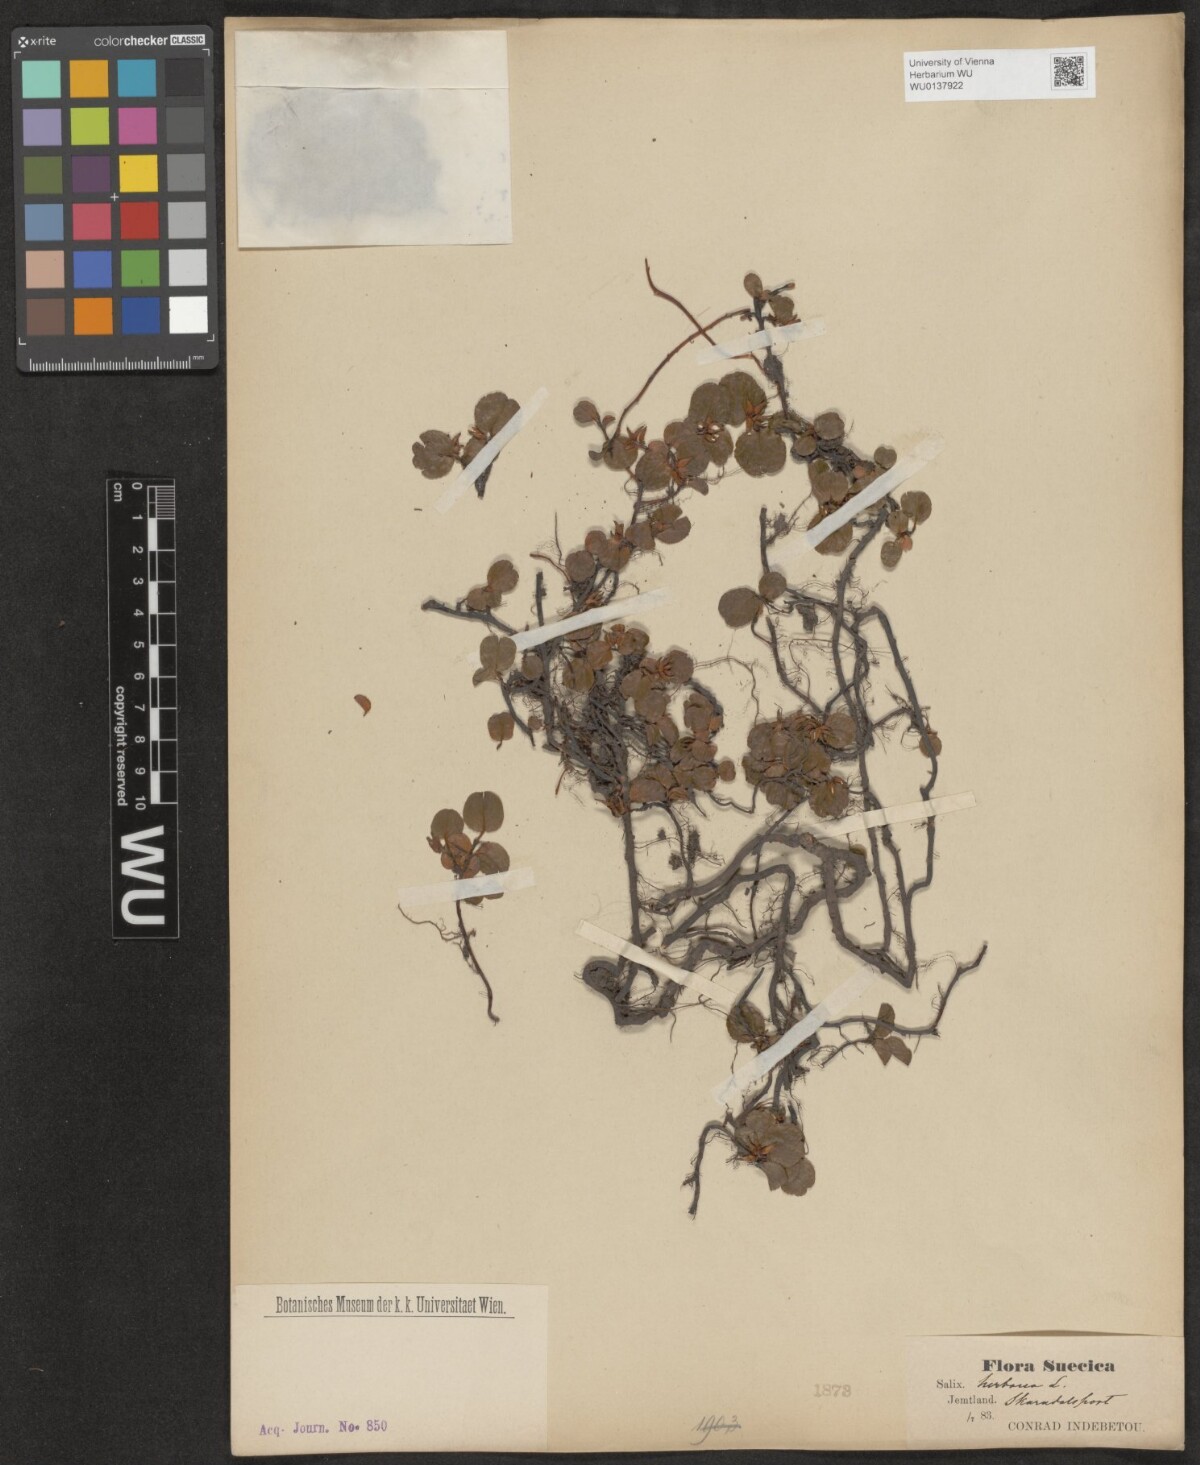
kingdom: Plantae
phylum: Tracheophyta
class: Magnoliopsida
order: Malpighiales
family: Salicaceae
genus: Salix
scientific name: Salix herbacea
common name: Dwarf willow
